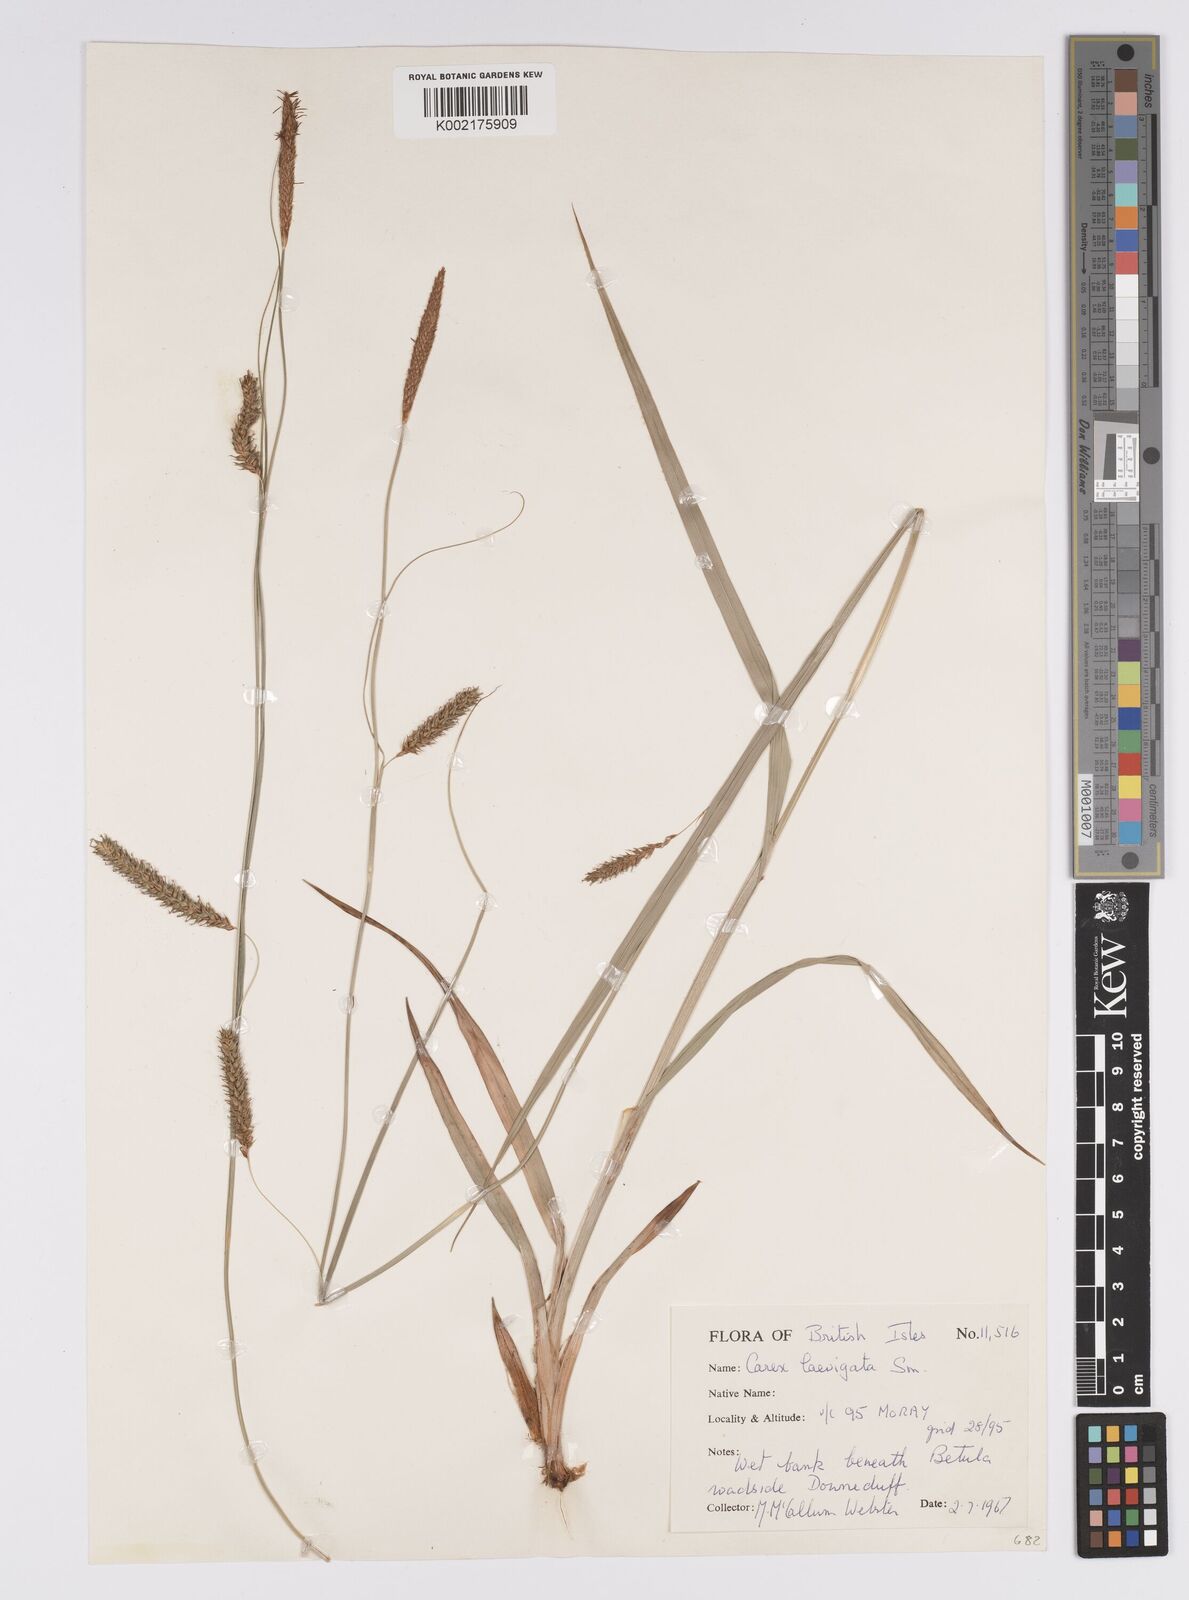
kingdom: Plantae
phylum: Tracheophyta
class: Liliopsida
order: Poales
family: Cyperaceae
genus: Carex
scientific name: Carex laevigata
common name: Smooth-stalked sedge
